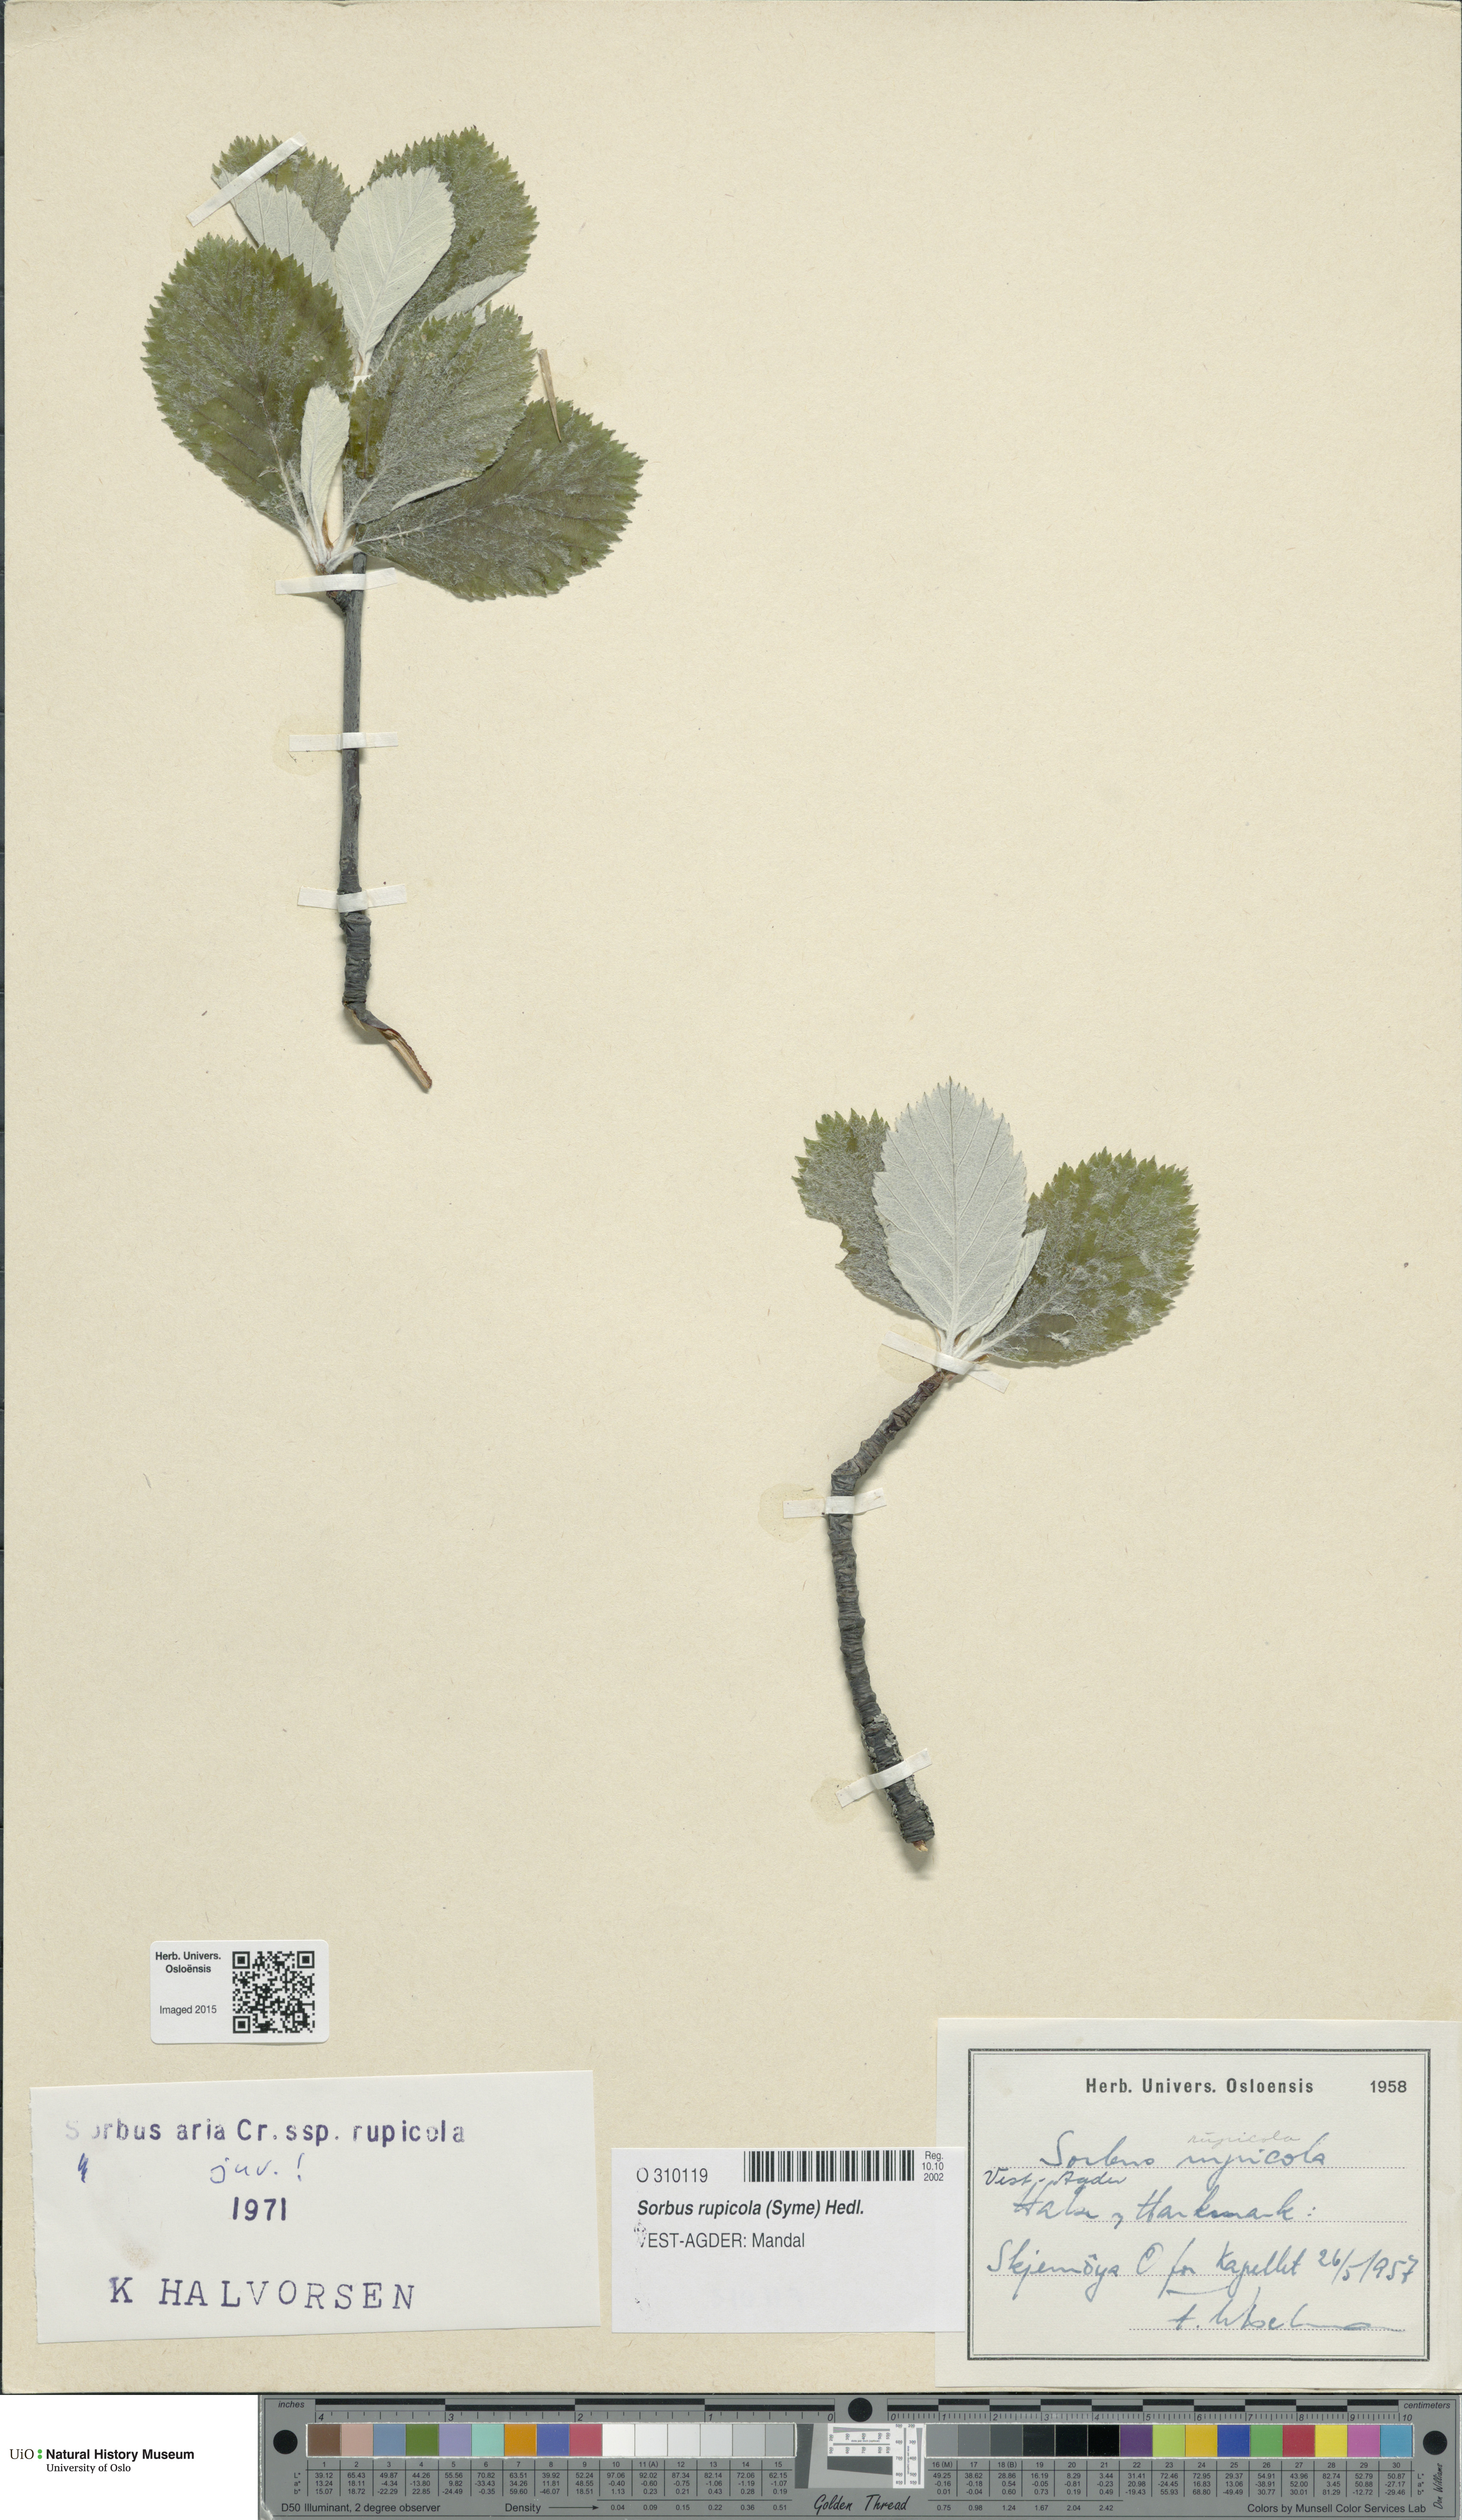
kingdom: Plantae
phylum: Tracheophyta
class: Magnoliopsida
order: Rosales
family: Rosaceae
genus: Aria
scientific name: Aria rupicola
